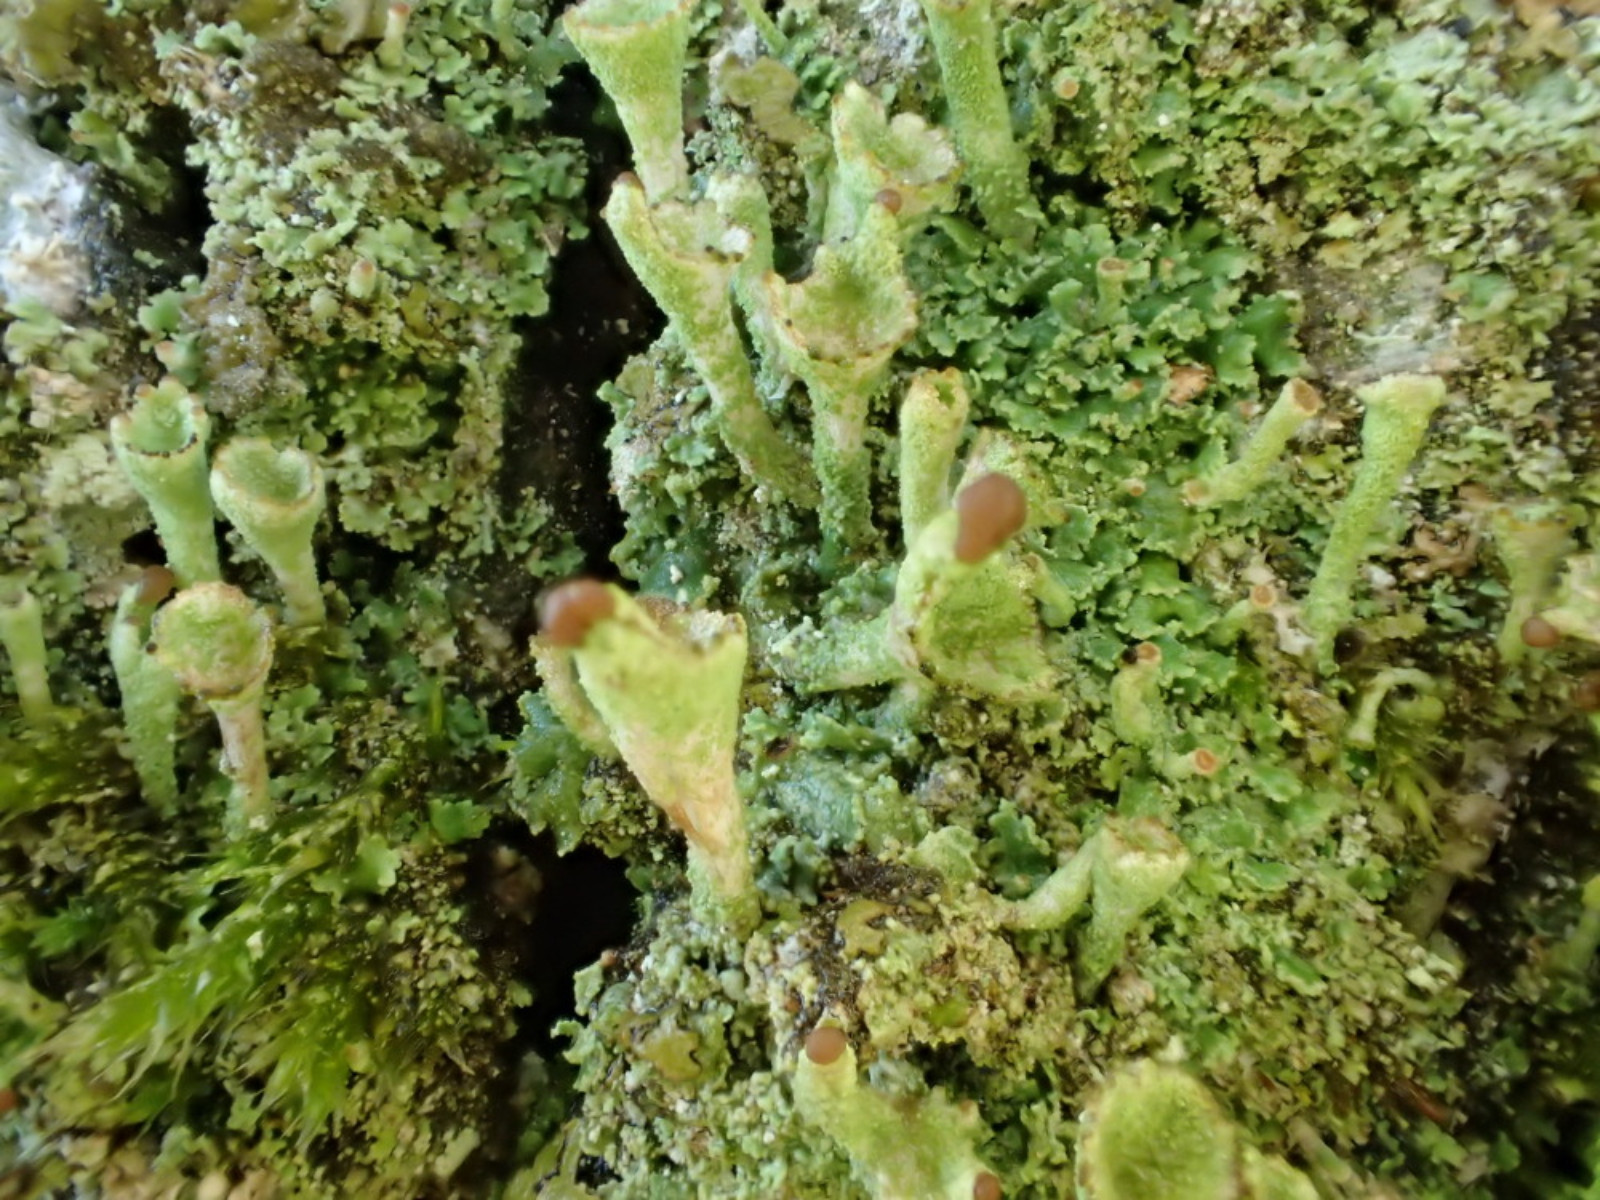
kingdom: Fungi
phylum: Ascomycota
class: Lecanoromycetes
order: Lecanorales
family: Cladoniaceae
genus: Cladonia
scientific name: Cladonia
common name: brungrøn bægerlav
